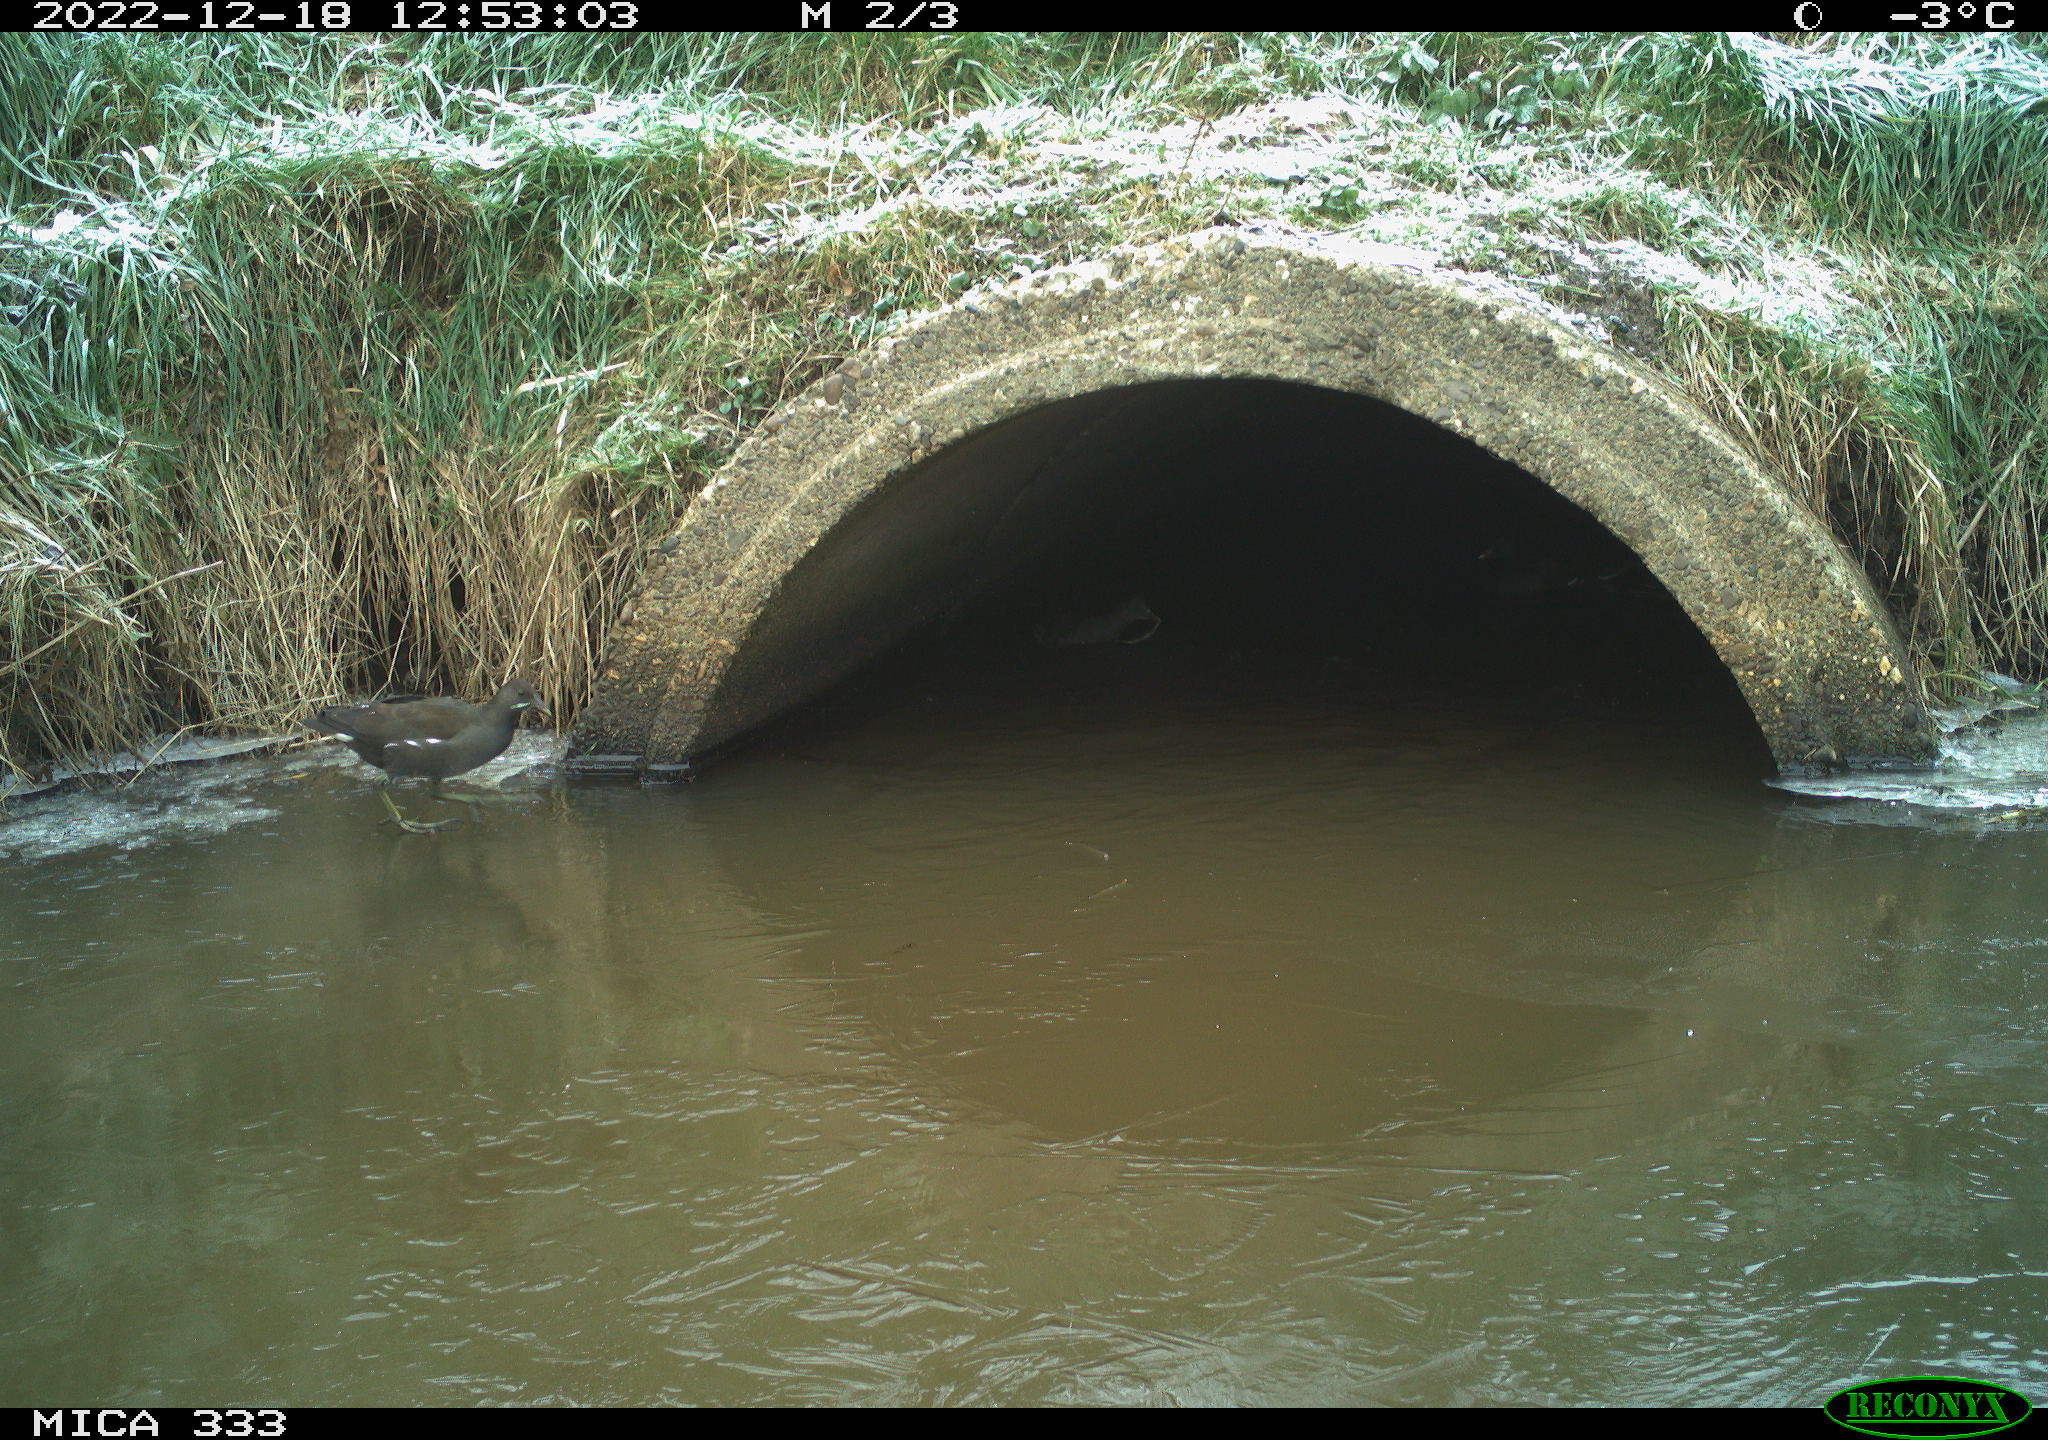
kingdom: Animalia
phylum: Chordata
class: Aves
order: Gruiformes
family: Rallidae
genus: Gallinula
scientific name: Gallinula chloropus
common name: Common moorhen
